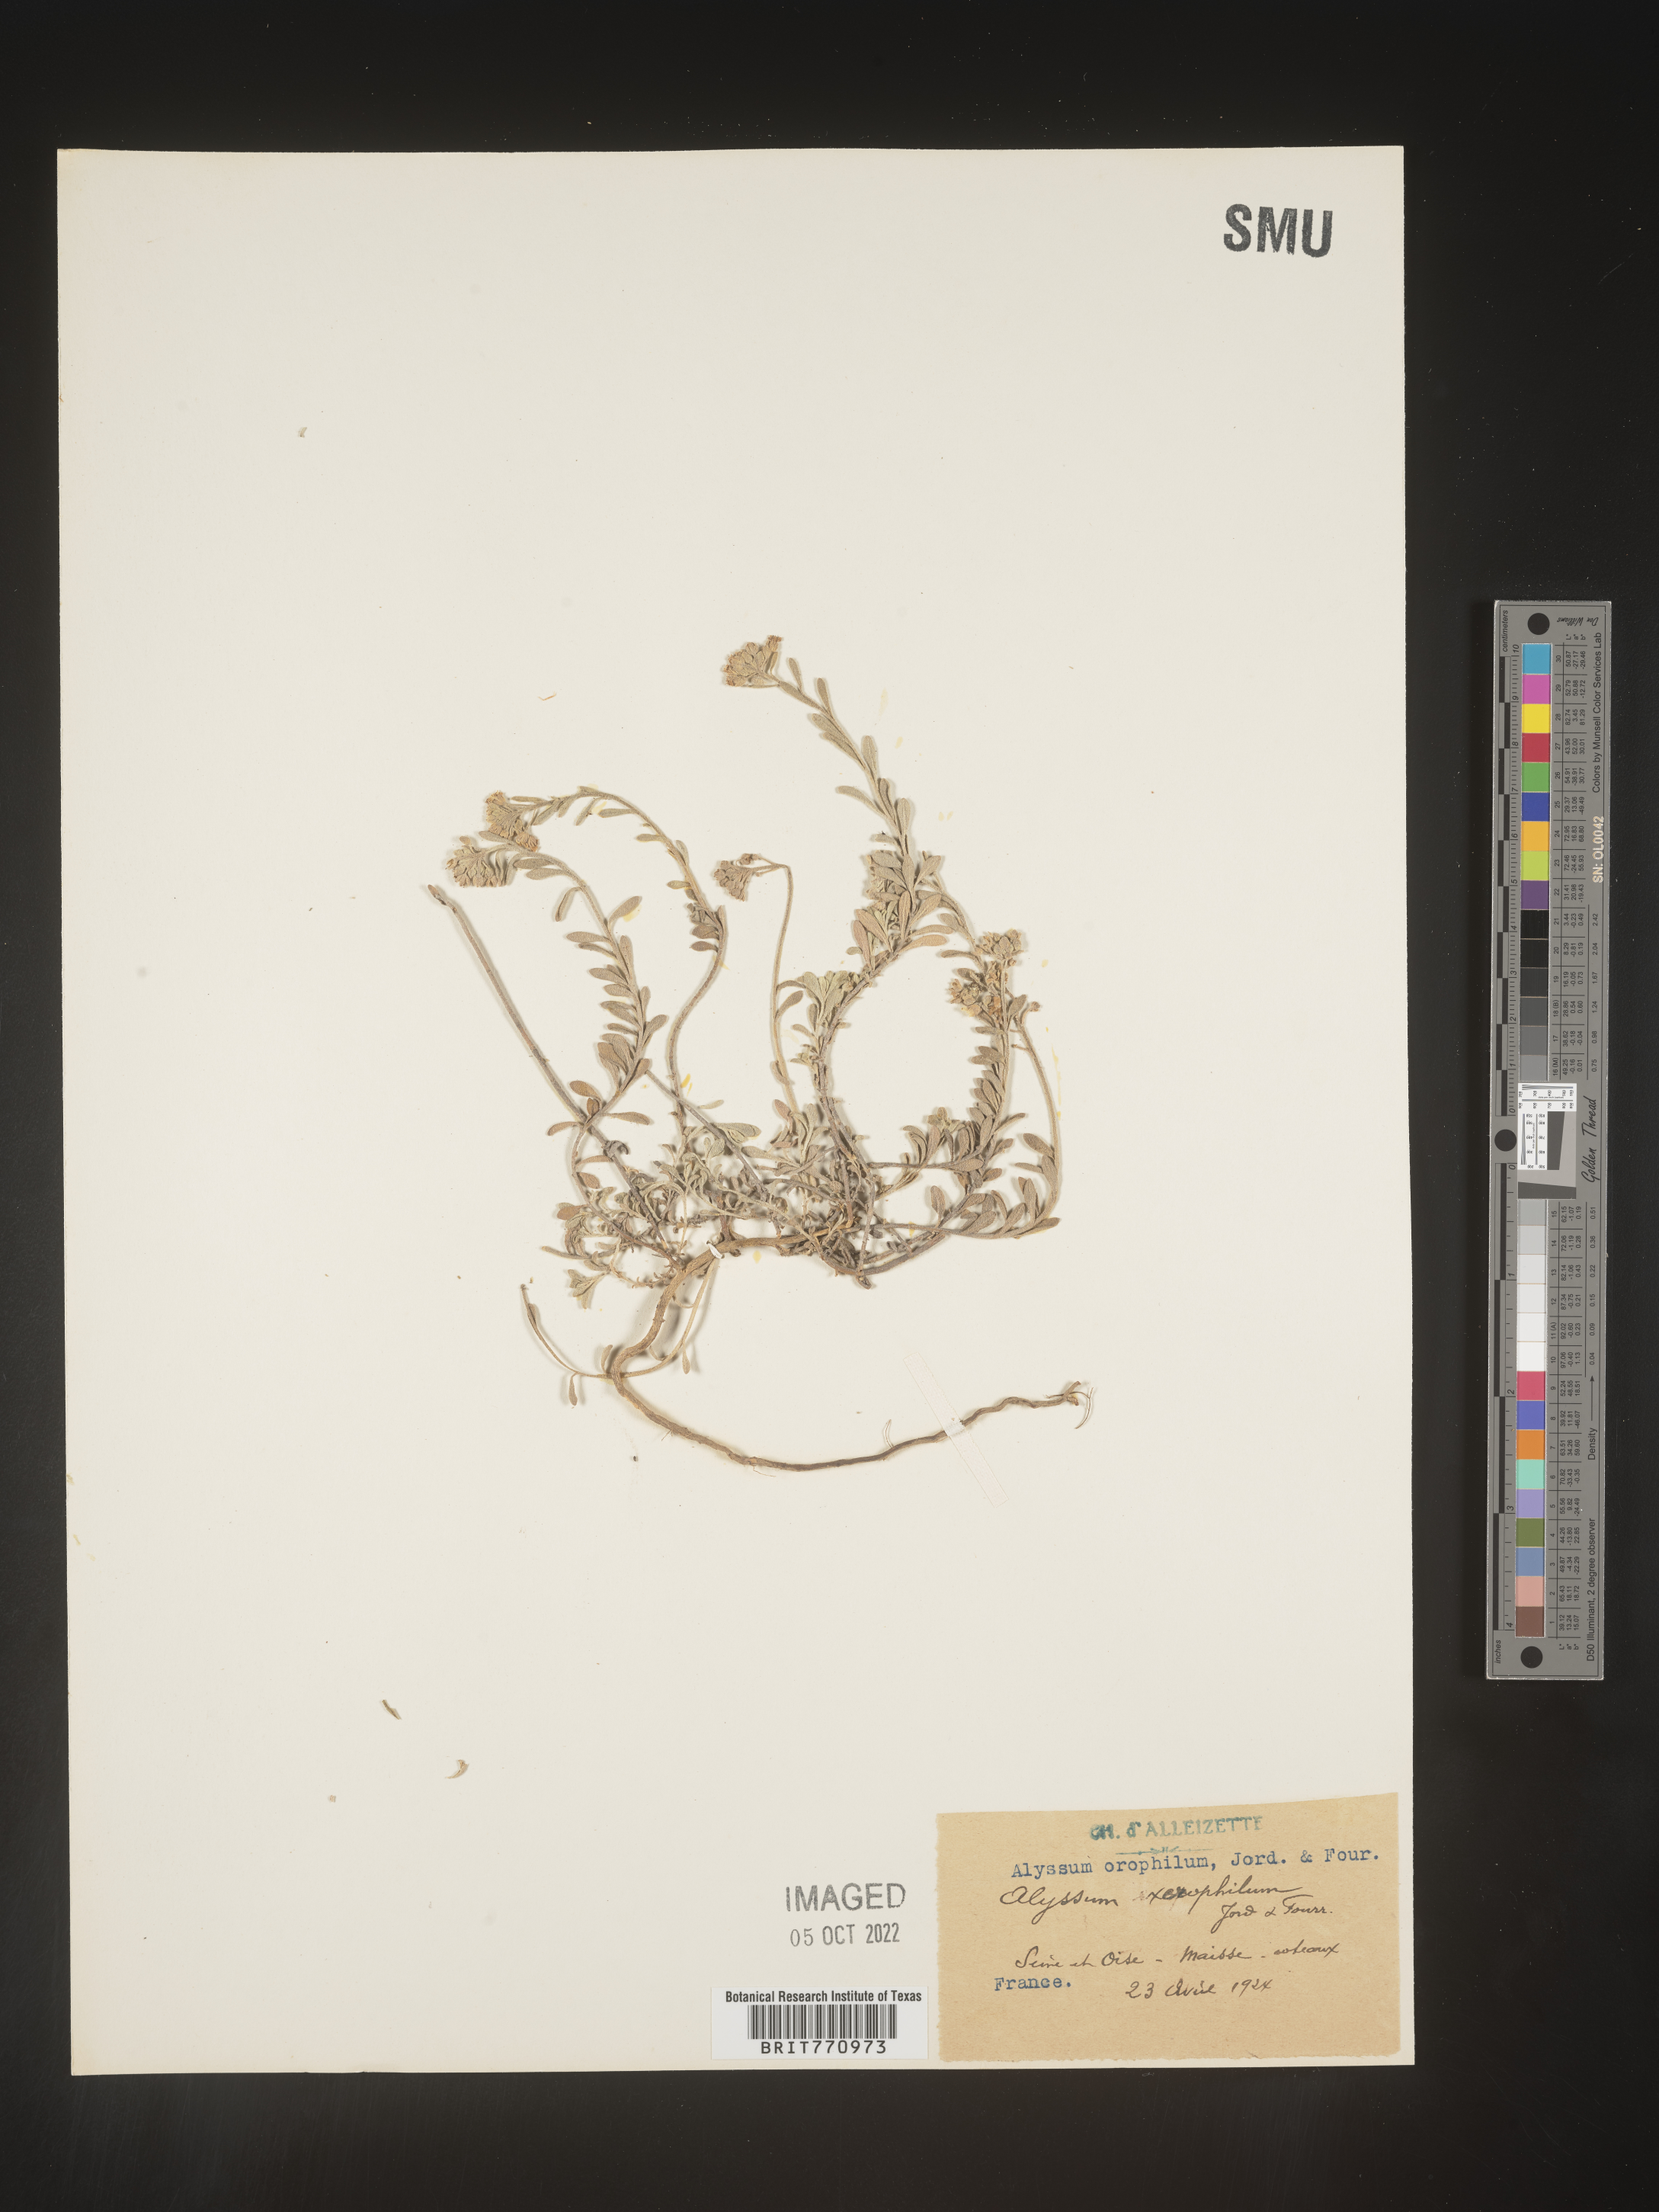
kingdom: Plantae
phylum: Tracheophyta
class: Magnoliopsida
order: Brassicales
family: Brassicaceae
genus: Alyssum
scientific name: Alyssum
